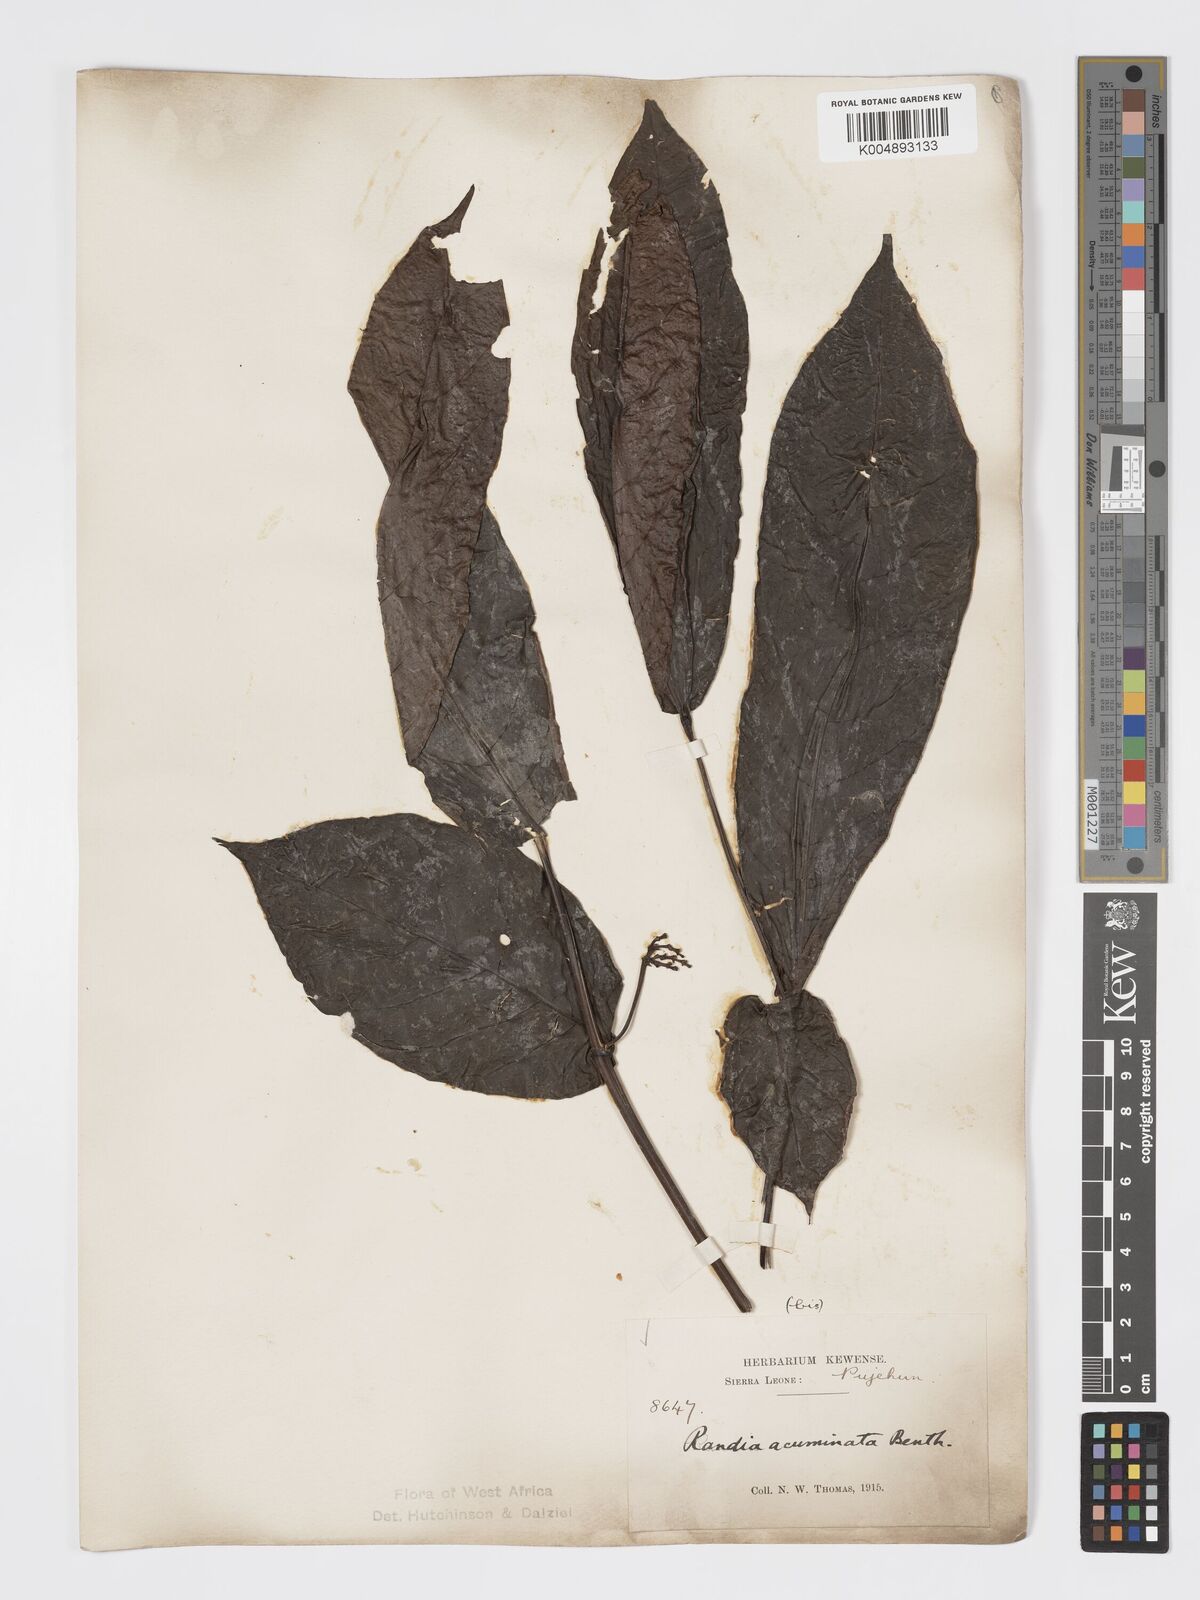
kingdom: Plantae
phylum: Tracheophyta
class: Magnoliopsida
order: Gentianales
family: Rubiaceae
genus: Massularia
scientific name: Massularia acuminata
